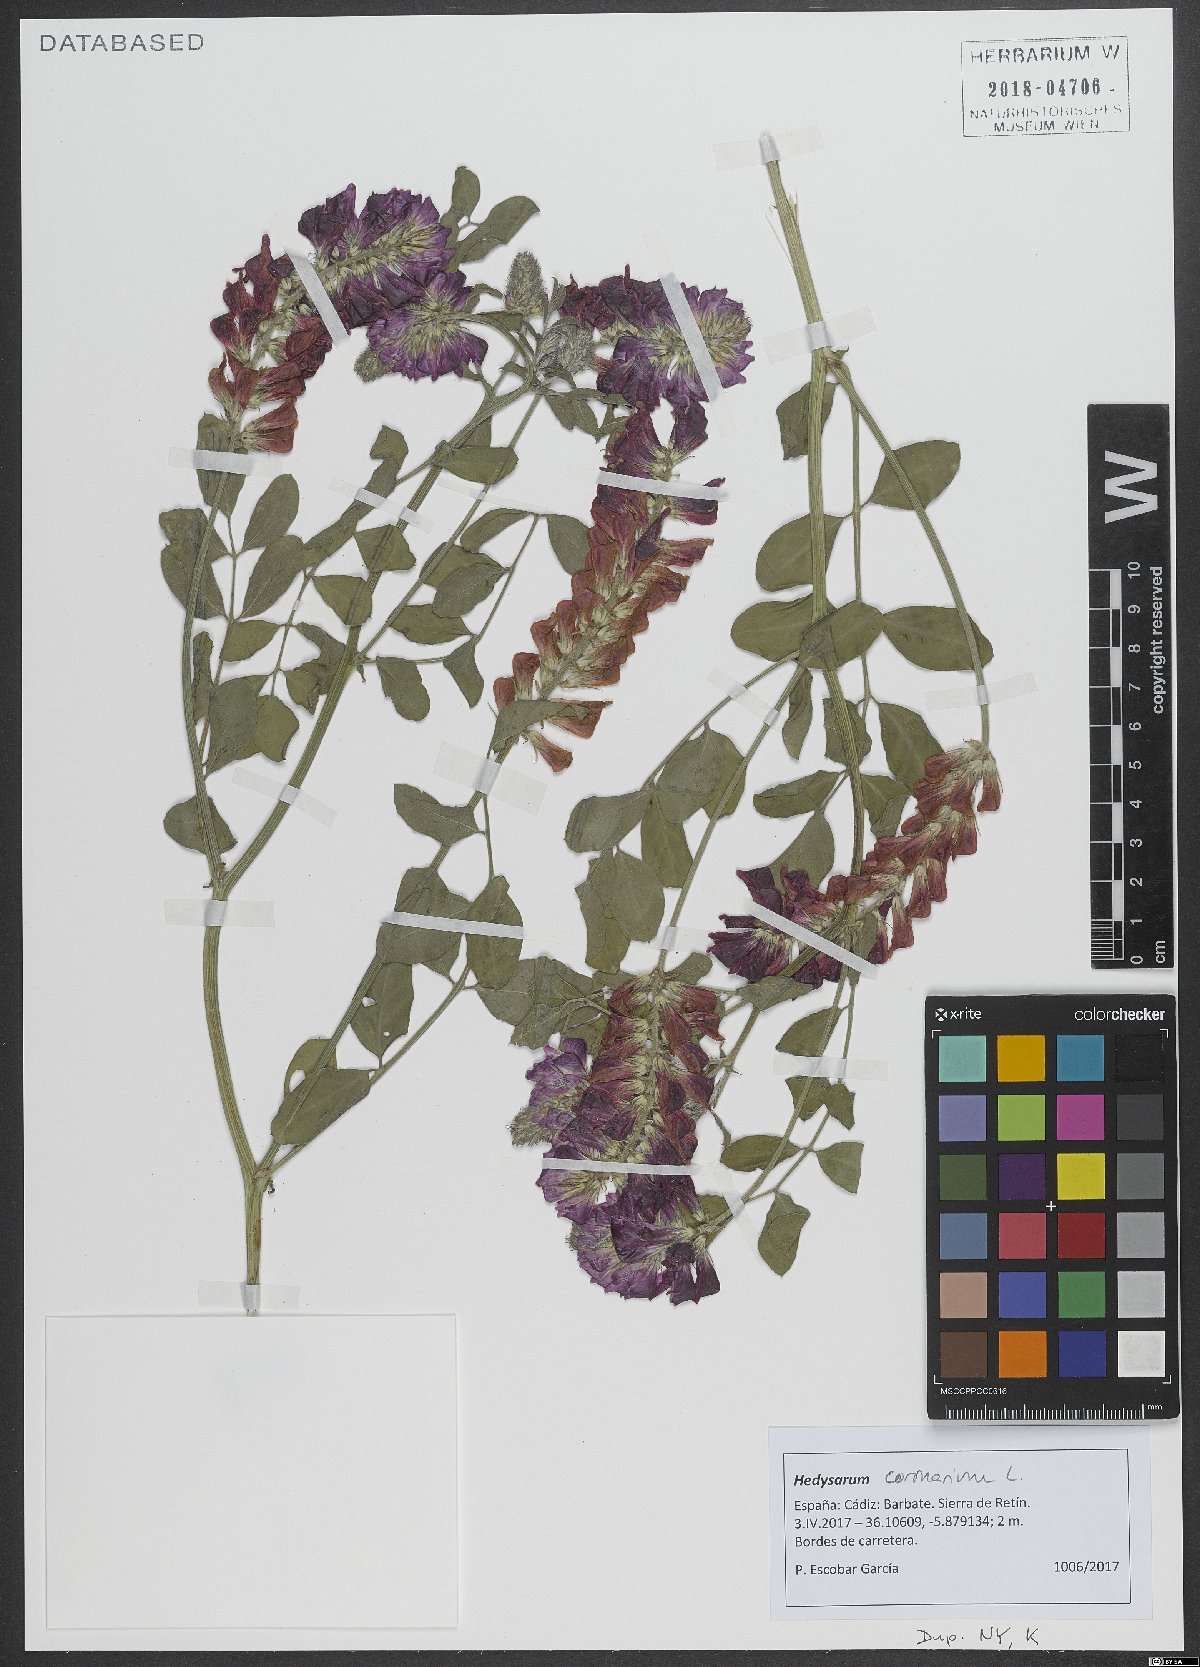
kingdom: Plantae
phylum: Tracheophyta
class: Magnoliopsida
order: Fabales
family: Fabaceae
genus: Sulla
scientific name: Sulla coronaria
